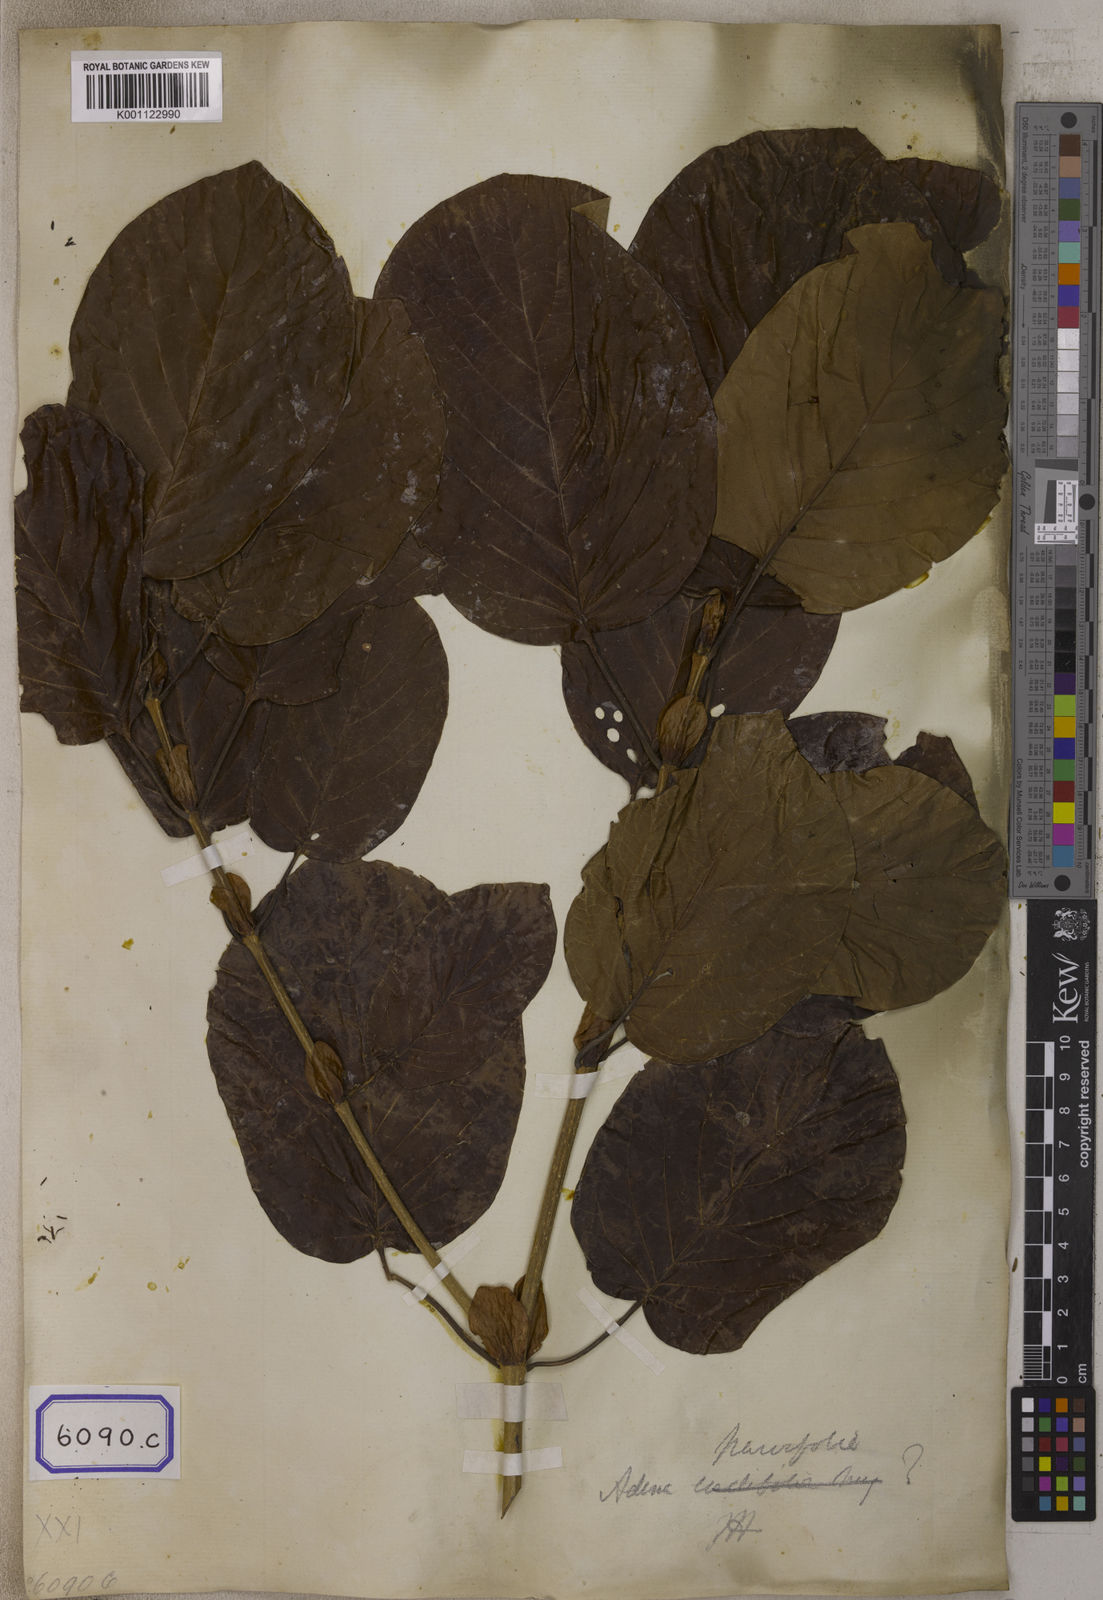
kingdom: Plantae
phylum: Tracheophyta
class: Magnoliopsida
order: Gentianales
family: Rubiaceae
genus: Nauclea
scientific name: Nauclea
